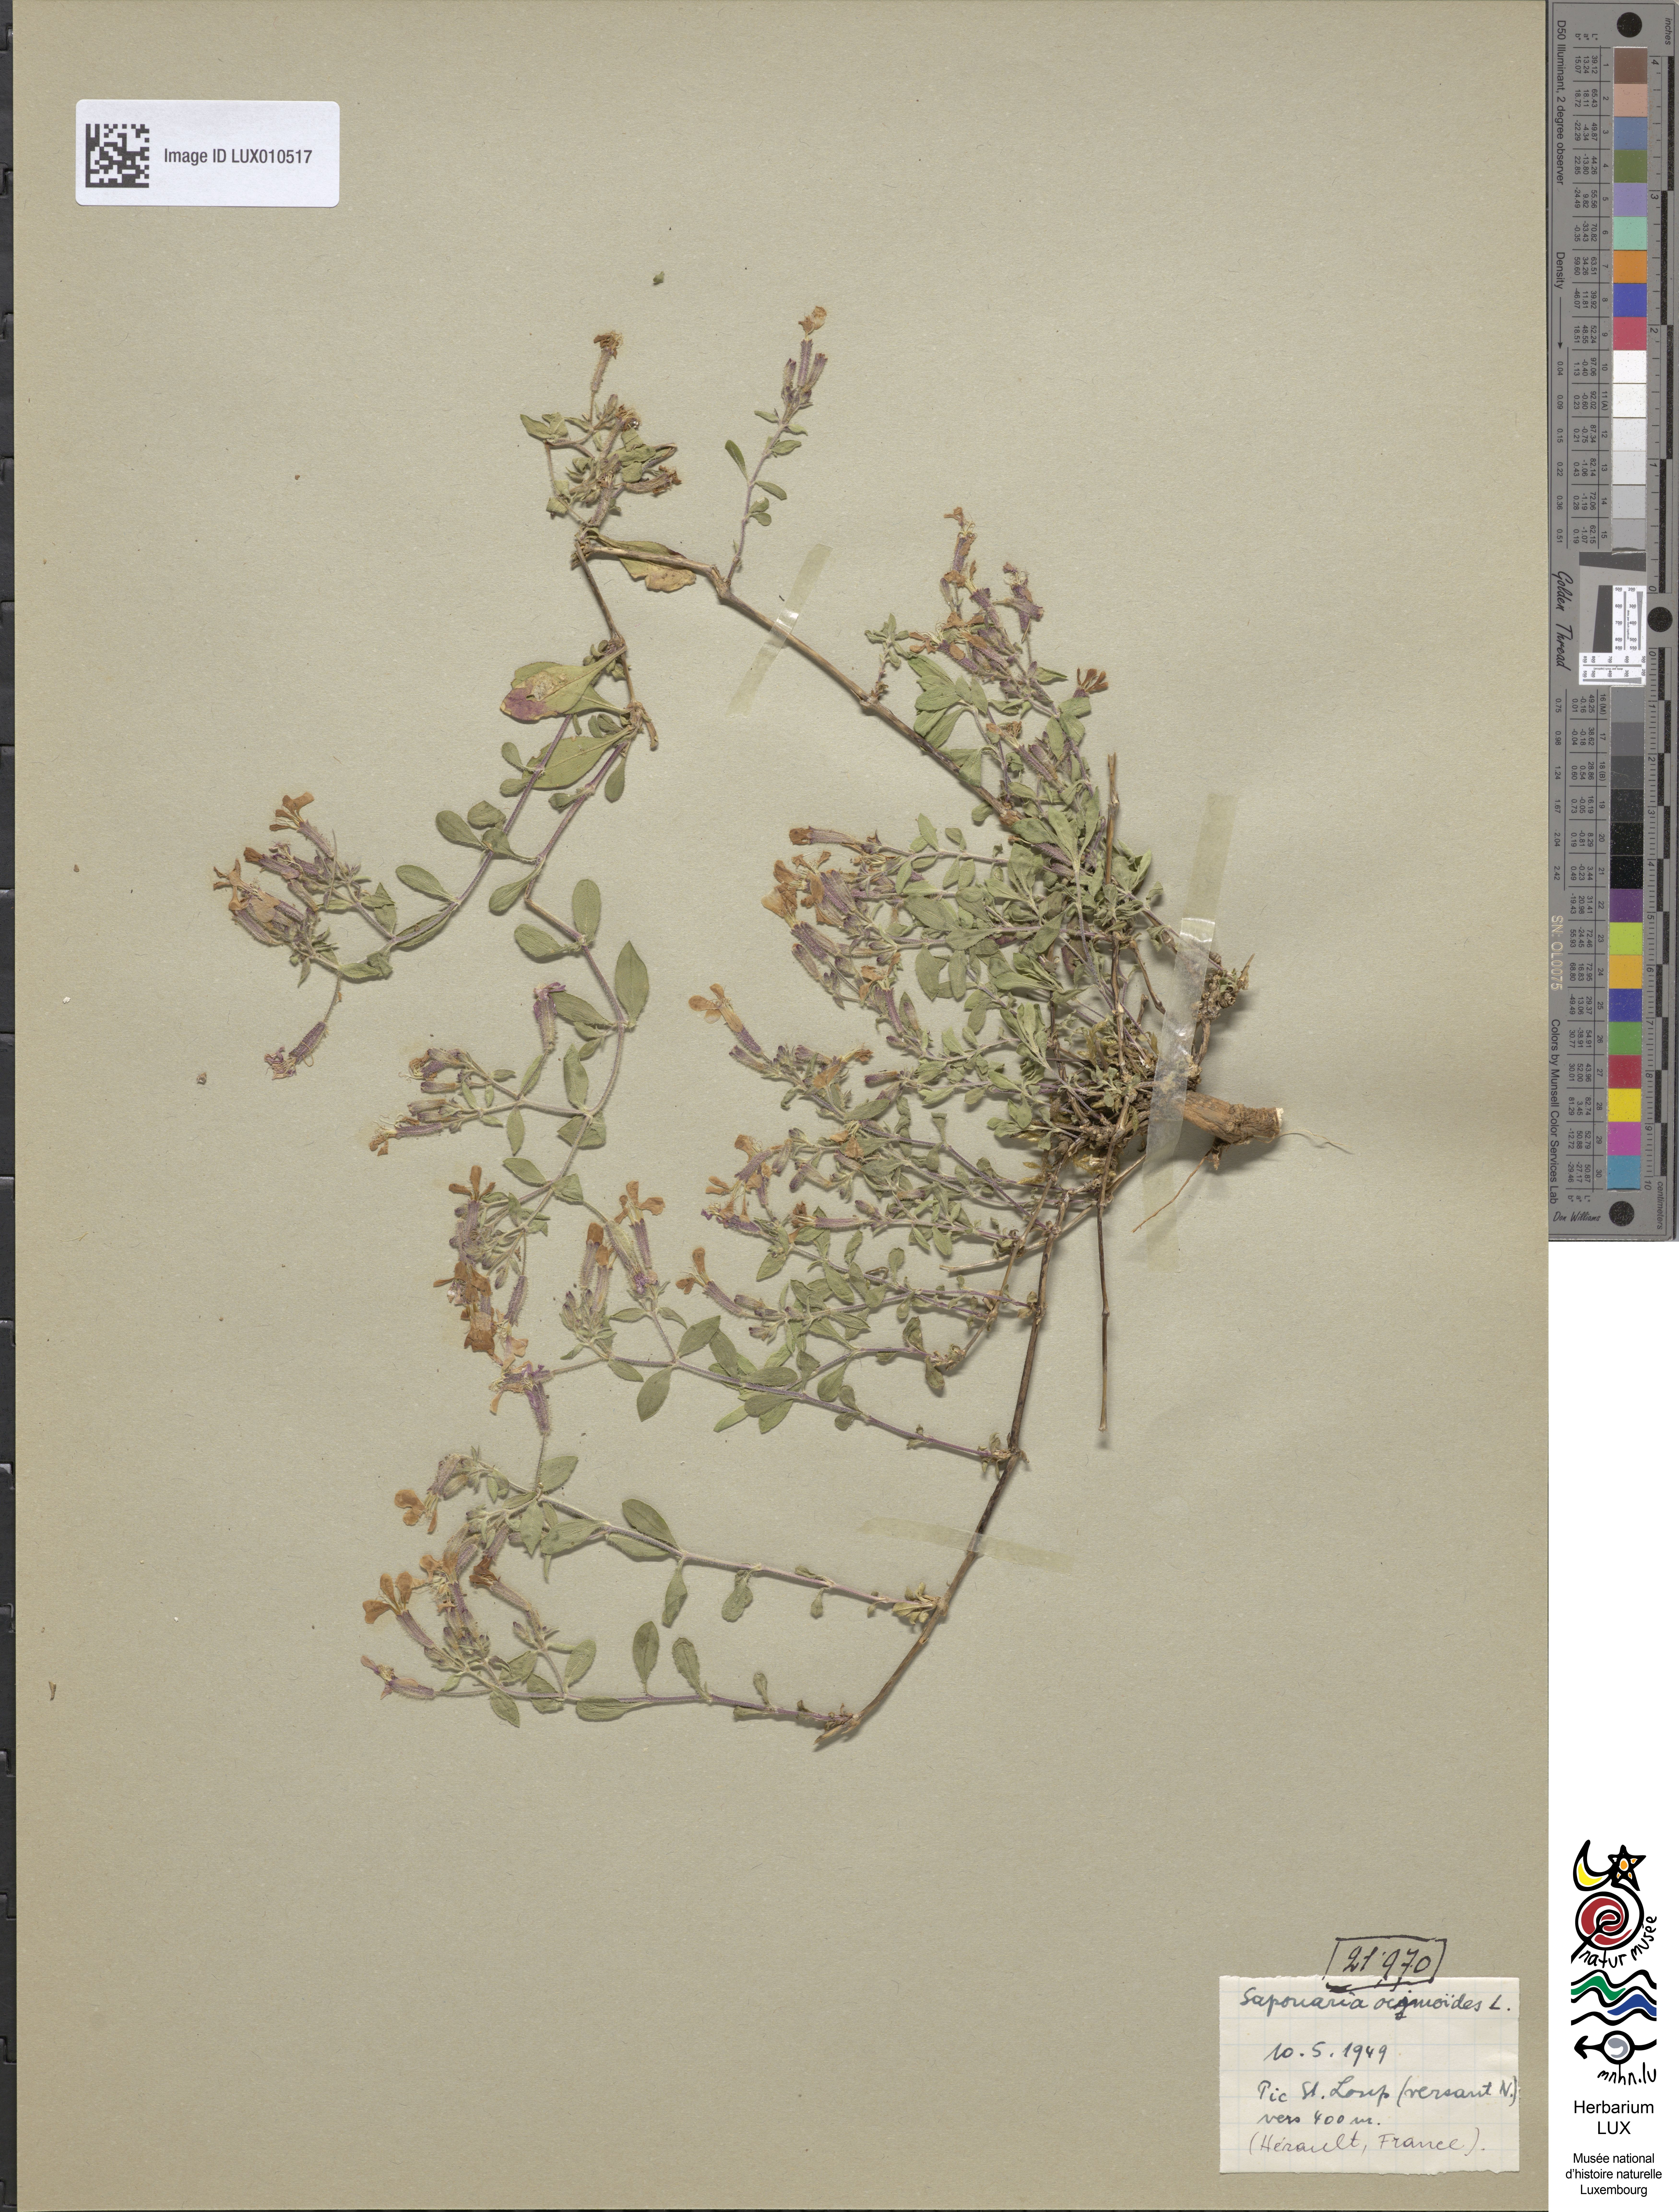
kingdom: Plantae
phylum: Tracheophyta
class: Magnoliopsida
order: Caryophyllales
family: Caryophyllaceae
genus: Saponaria
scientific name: Saponaria ocymoides
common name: Rock soapwort
